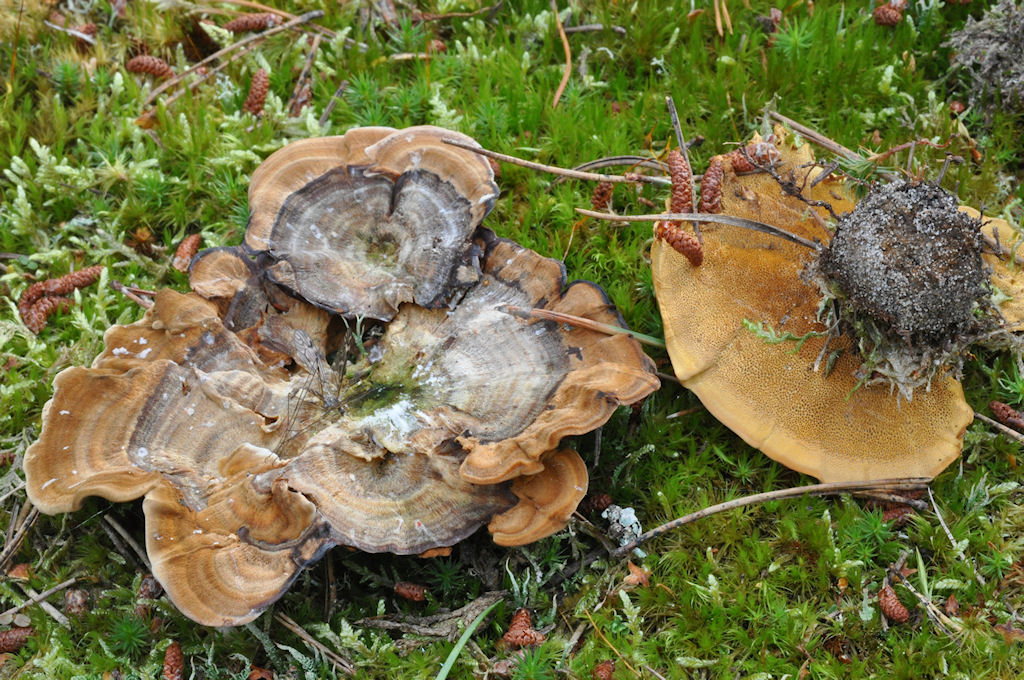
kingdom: Fungi
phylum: Basidiomycota
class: Agaricomycetes
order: Hymenochaetales
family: Hymenochaetaceae
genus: Coltricia
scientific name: Coltricia perennis
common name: almindelig sandporesvamp
